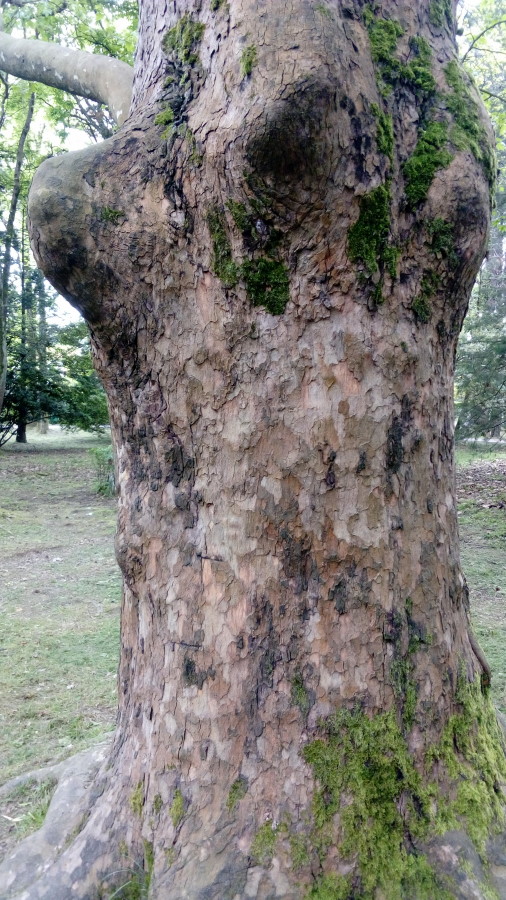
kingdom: Plantae
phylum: Tracheophyta
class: Pinopsida
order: Pinales
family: Cupressaceae
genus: Sequoia
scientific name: Sequoia sempervirens
